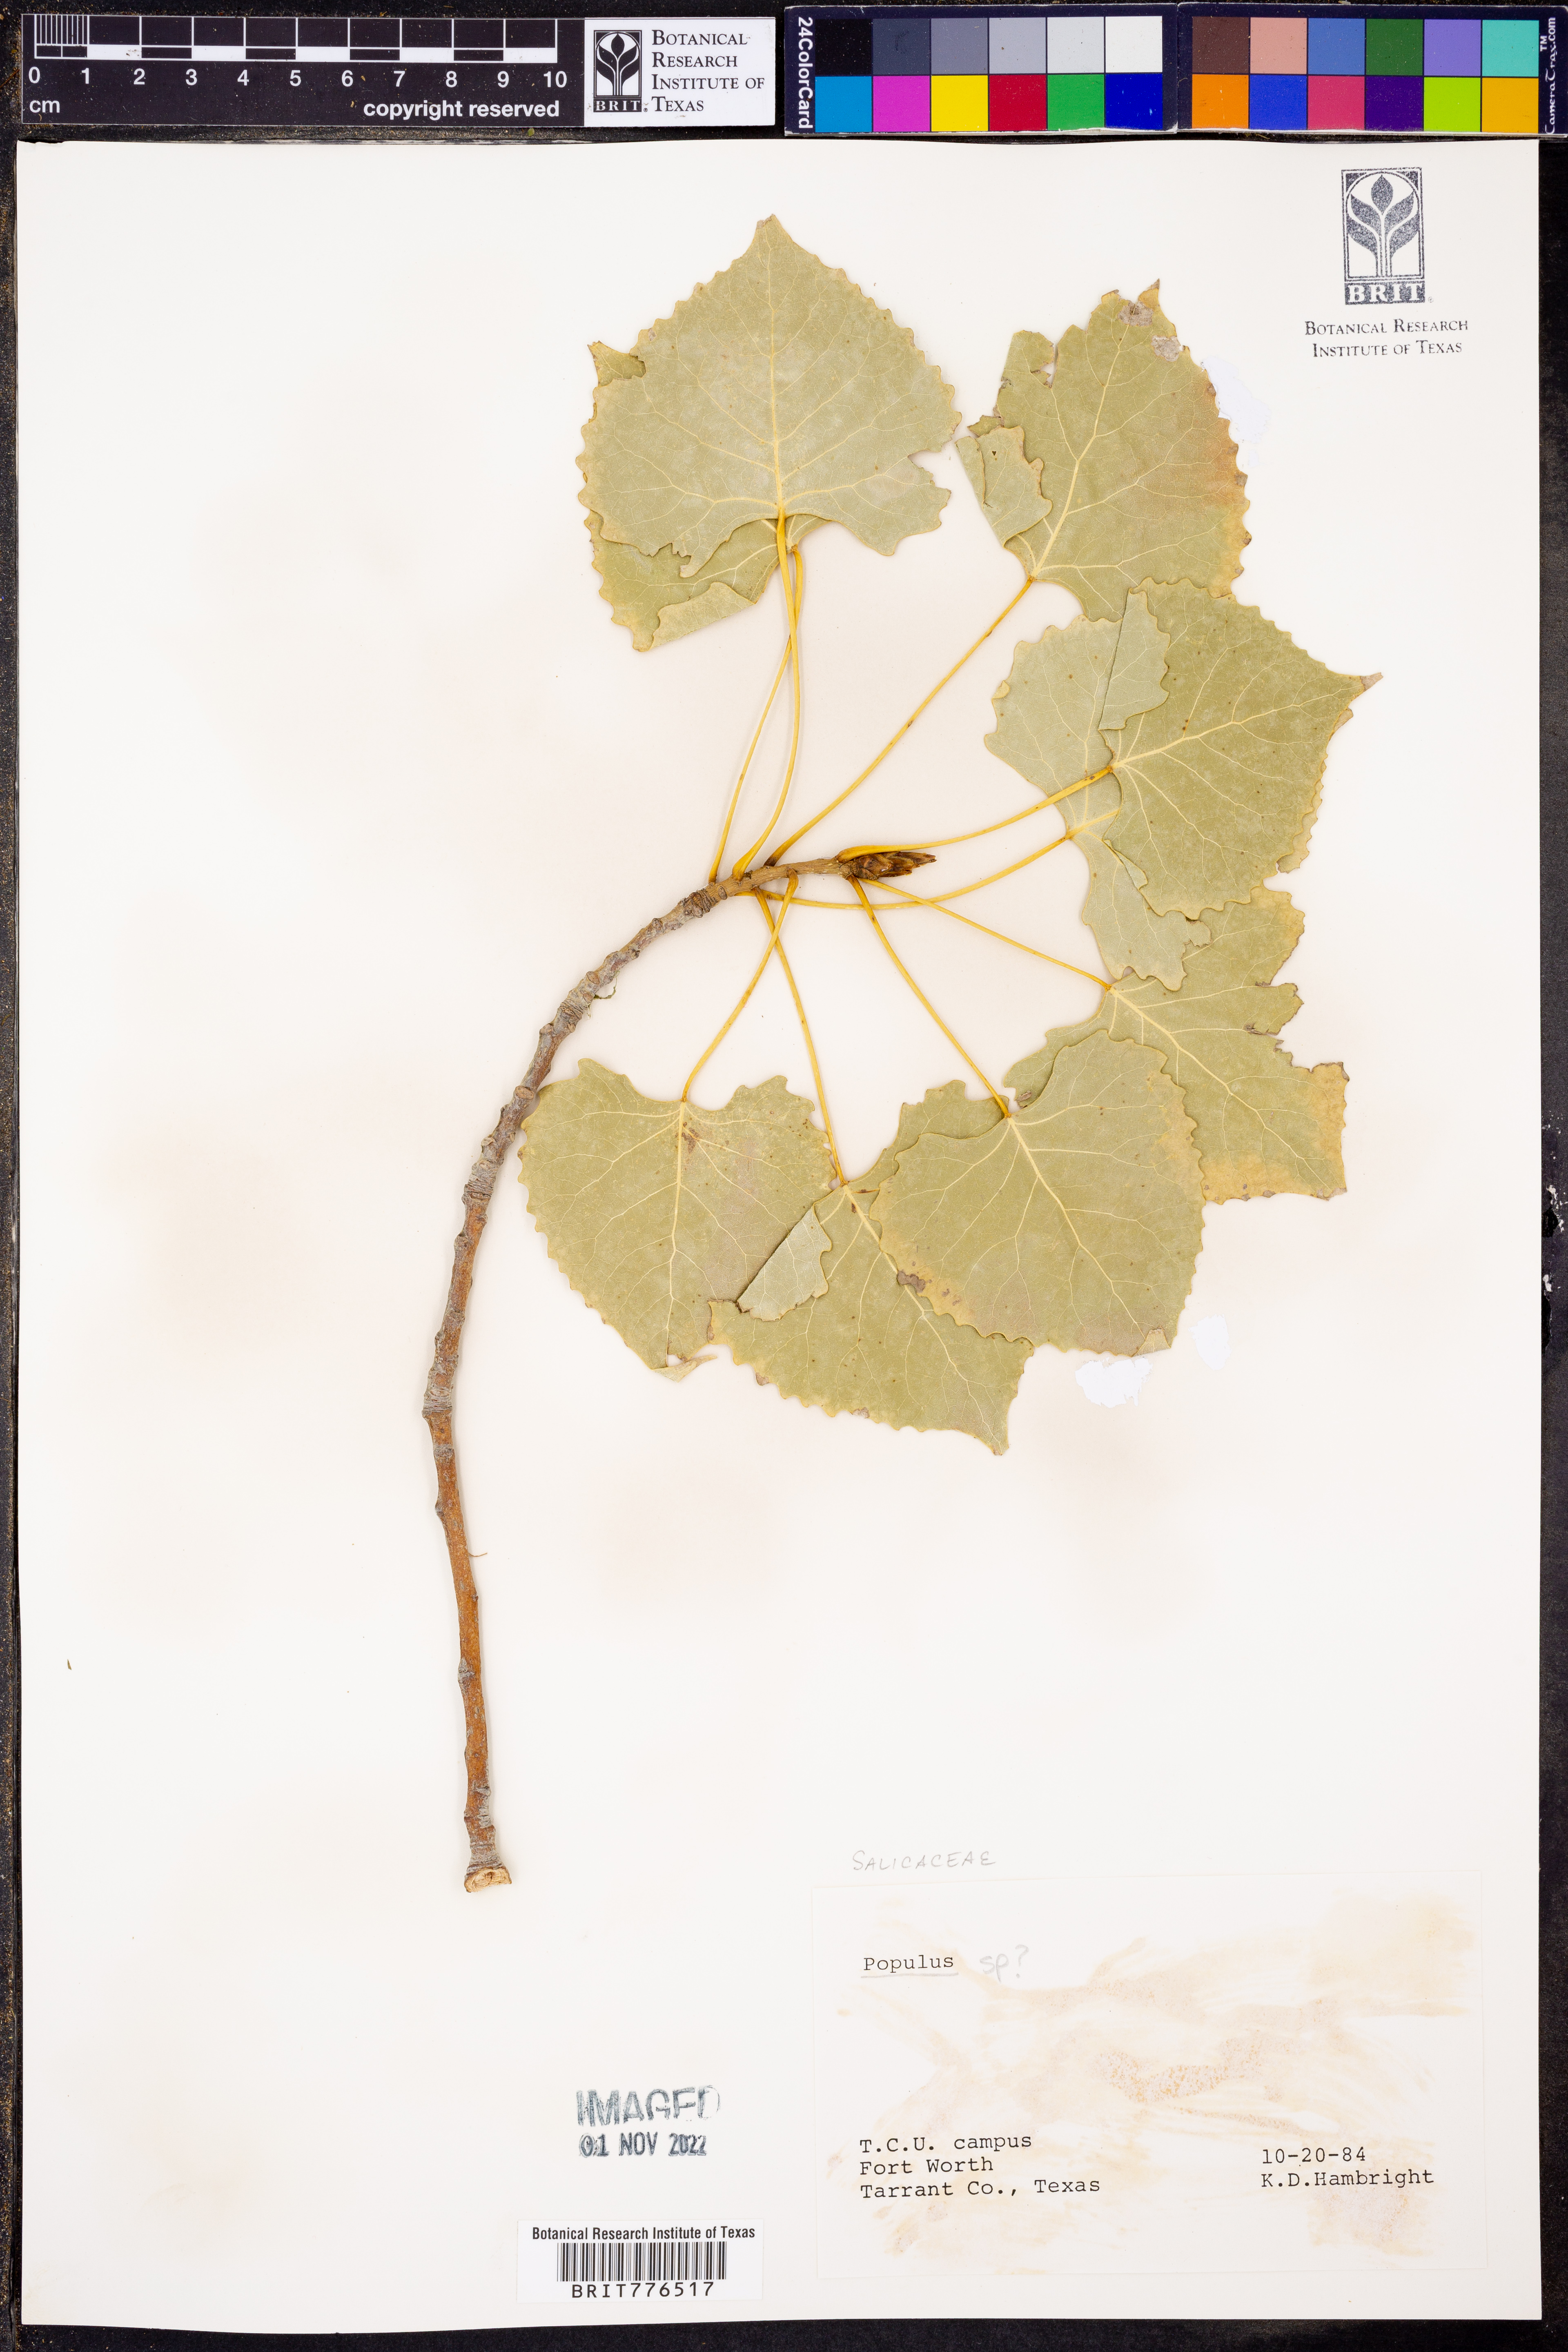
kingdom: Plantae
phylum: Tracheophyta
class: Magnoliopsida
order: Malpighiales
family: Salicaceae
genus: Populus
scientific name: Populus
